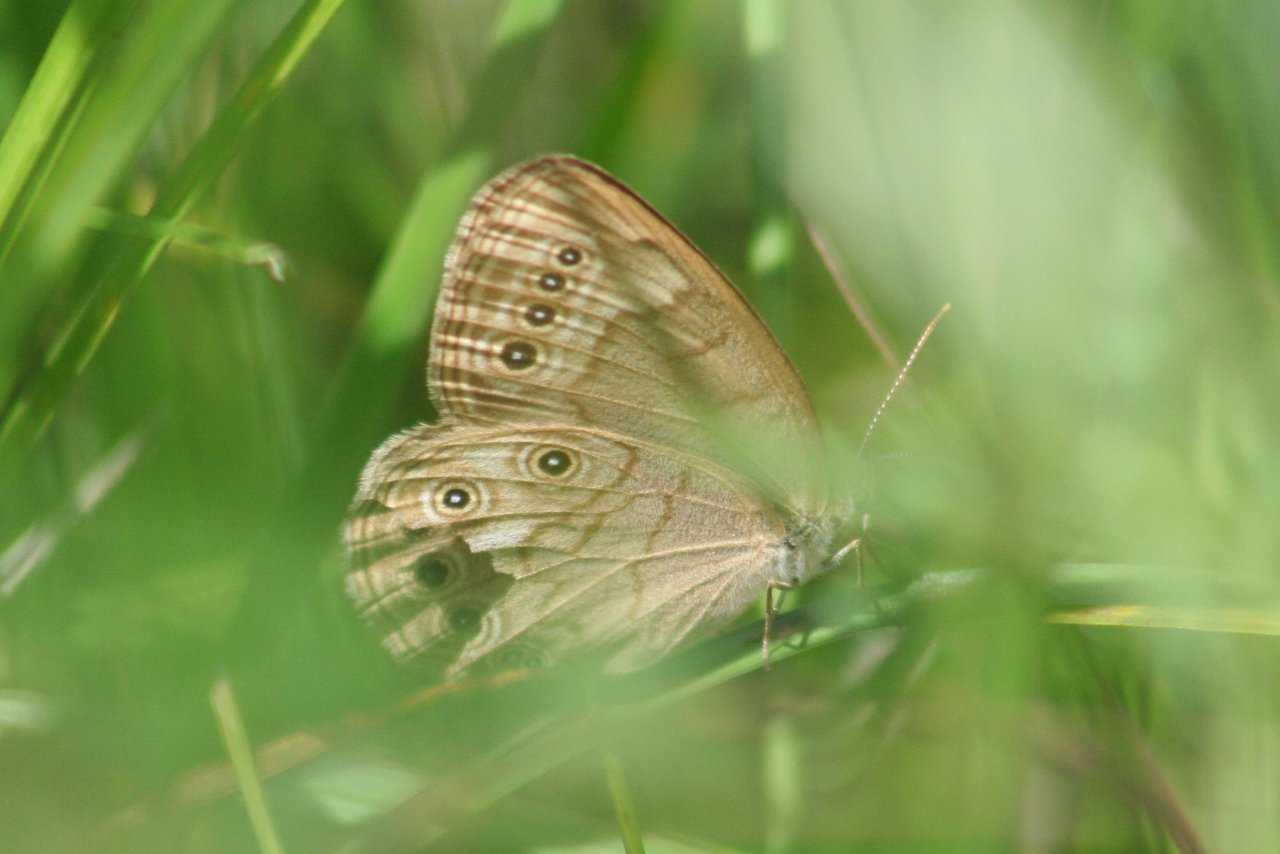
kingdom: Animalia
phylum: Arthropoda
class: Insecta
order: Lepidoptera
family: Nymphalidae
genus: Lethe
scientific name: Lethe eurydice
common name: Eyed Brown
